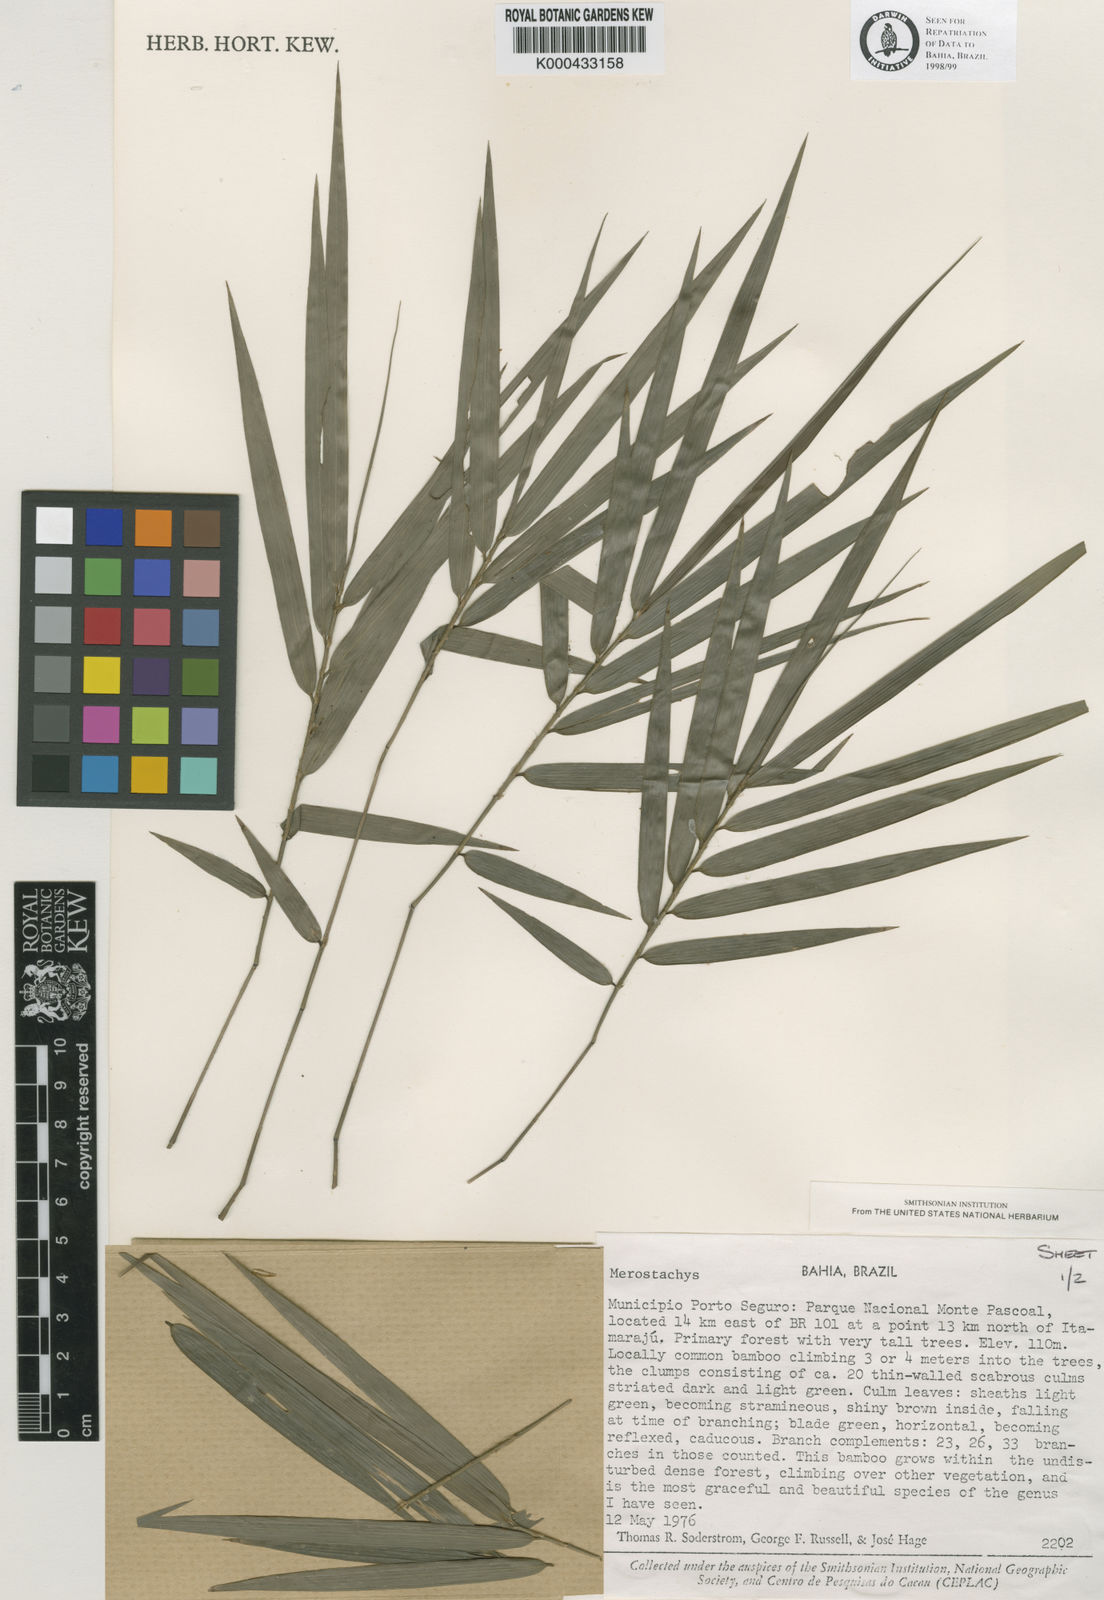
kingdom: Plantae
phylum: Tracheophyta
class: Liliopsida
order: Poales
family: Poaceae
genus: Merostachys
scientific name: Merostachys bifurcata
